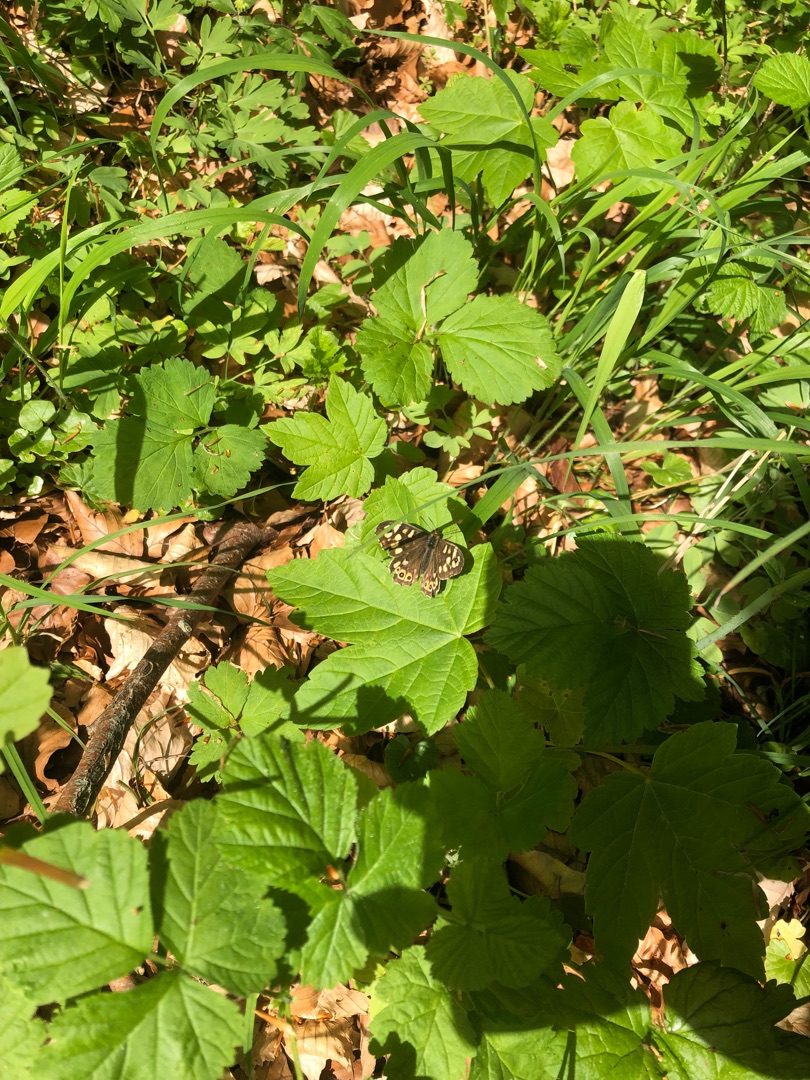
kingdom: Animalia
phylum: Arthropoda
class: Insecta
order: Lepidoptera
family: Nymphalidae
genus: Pararge
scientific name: Pararge aegeria
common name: Skovrandøje
